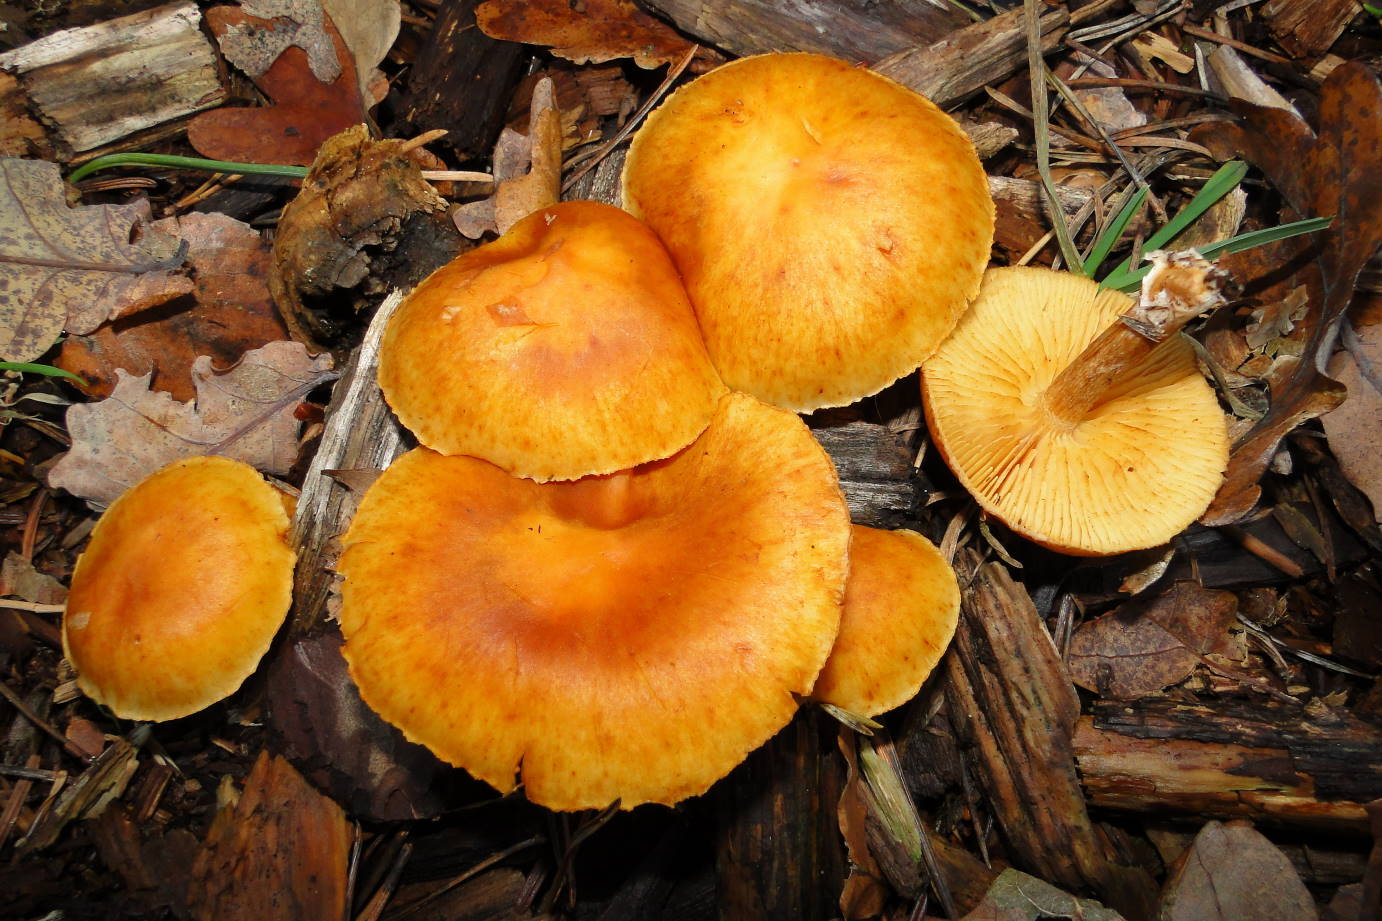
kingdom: Fungi
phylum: Basidiomycota
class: Agaricomycetes
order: Agaricales
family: Hymenogastraceae
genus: Gymnopilus
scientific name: Gymnopilus penetrans
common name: plettet flammehat
